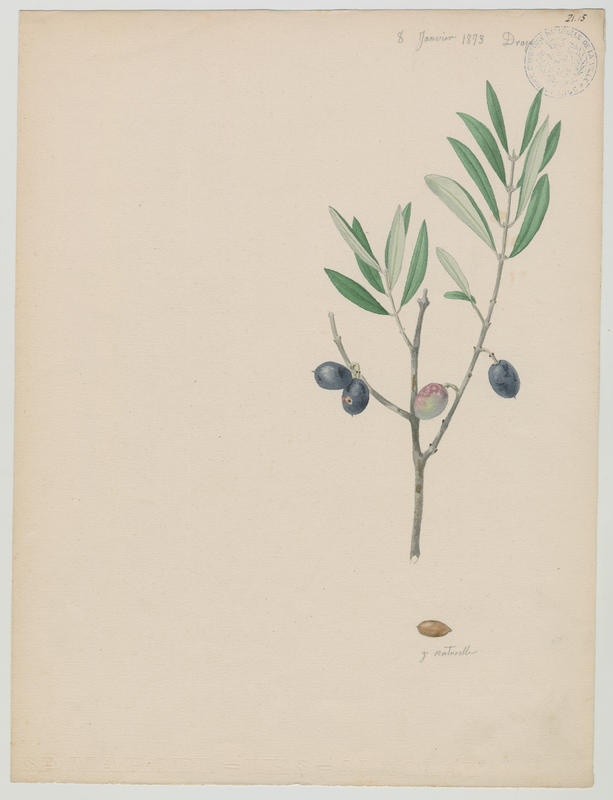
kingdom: Plantae
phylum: Tracheophyta
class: Magnoliopsida
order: Lamiales
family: Oleaceae
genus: Olea
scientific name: Olea europaea
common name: Olive
